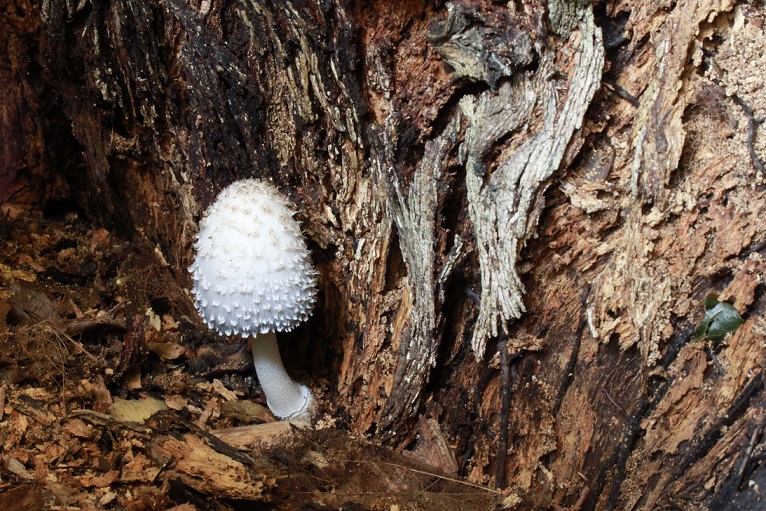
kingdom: Fungi
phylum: Basidiomycota
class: Agaricomycetes
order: Agaricales
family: Psathyrellaceae
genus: Coprinopsis
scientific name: Coprinopsis mitrispora
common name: hul-blækhat
